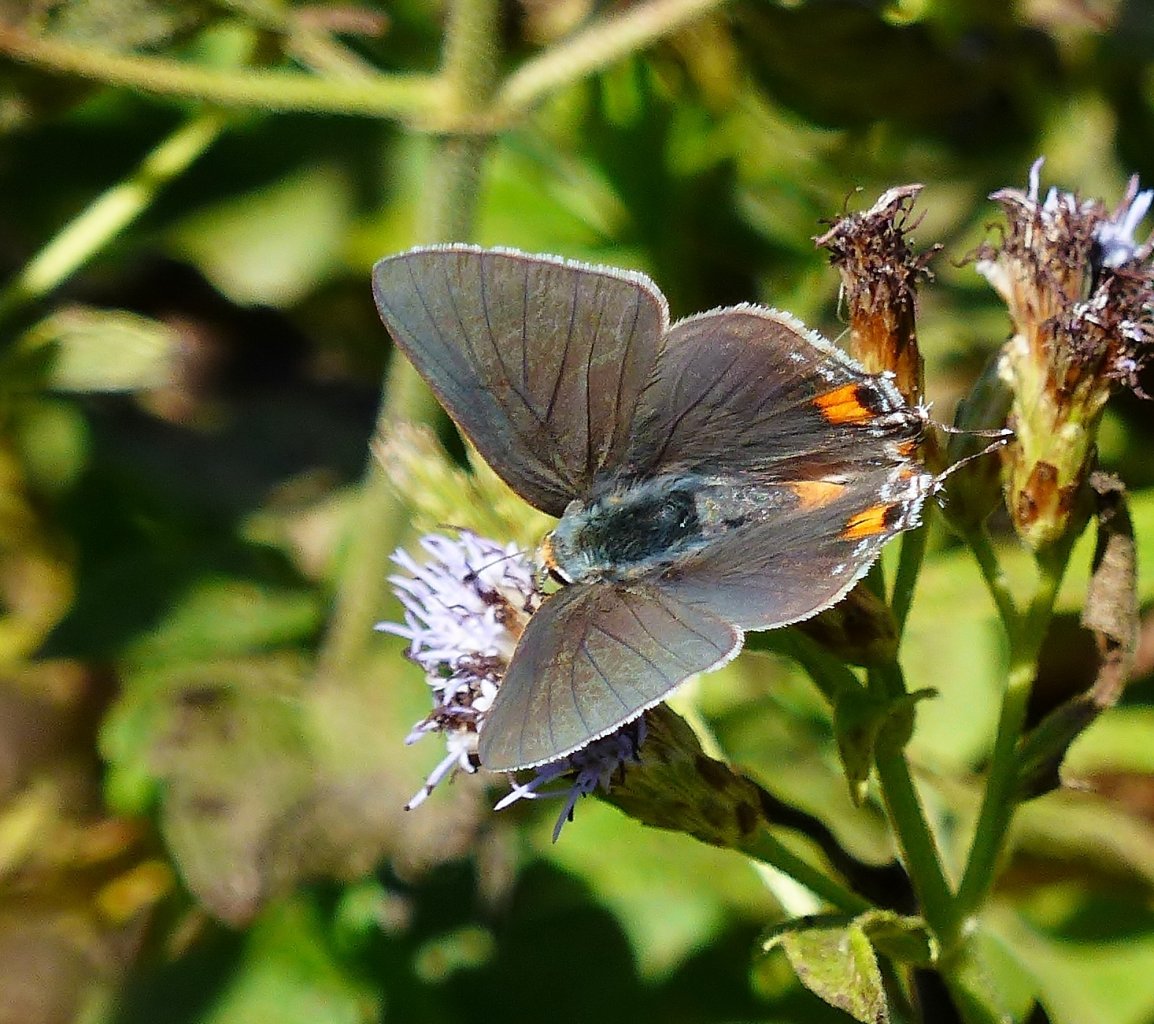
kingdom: Animalia
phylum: Arthropoda
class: Insecta
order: Lepidoptera
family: Lycaenidae
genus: Strymon
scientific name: Strymon melinus
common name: Gray Hairstreak
